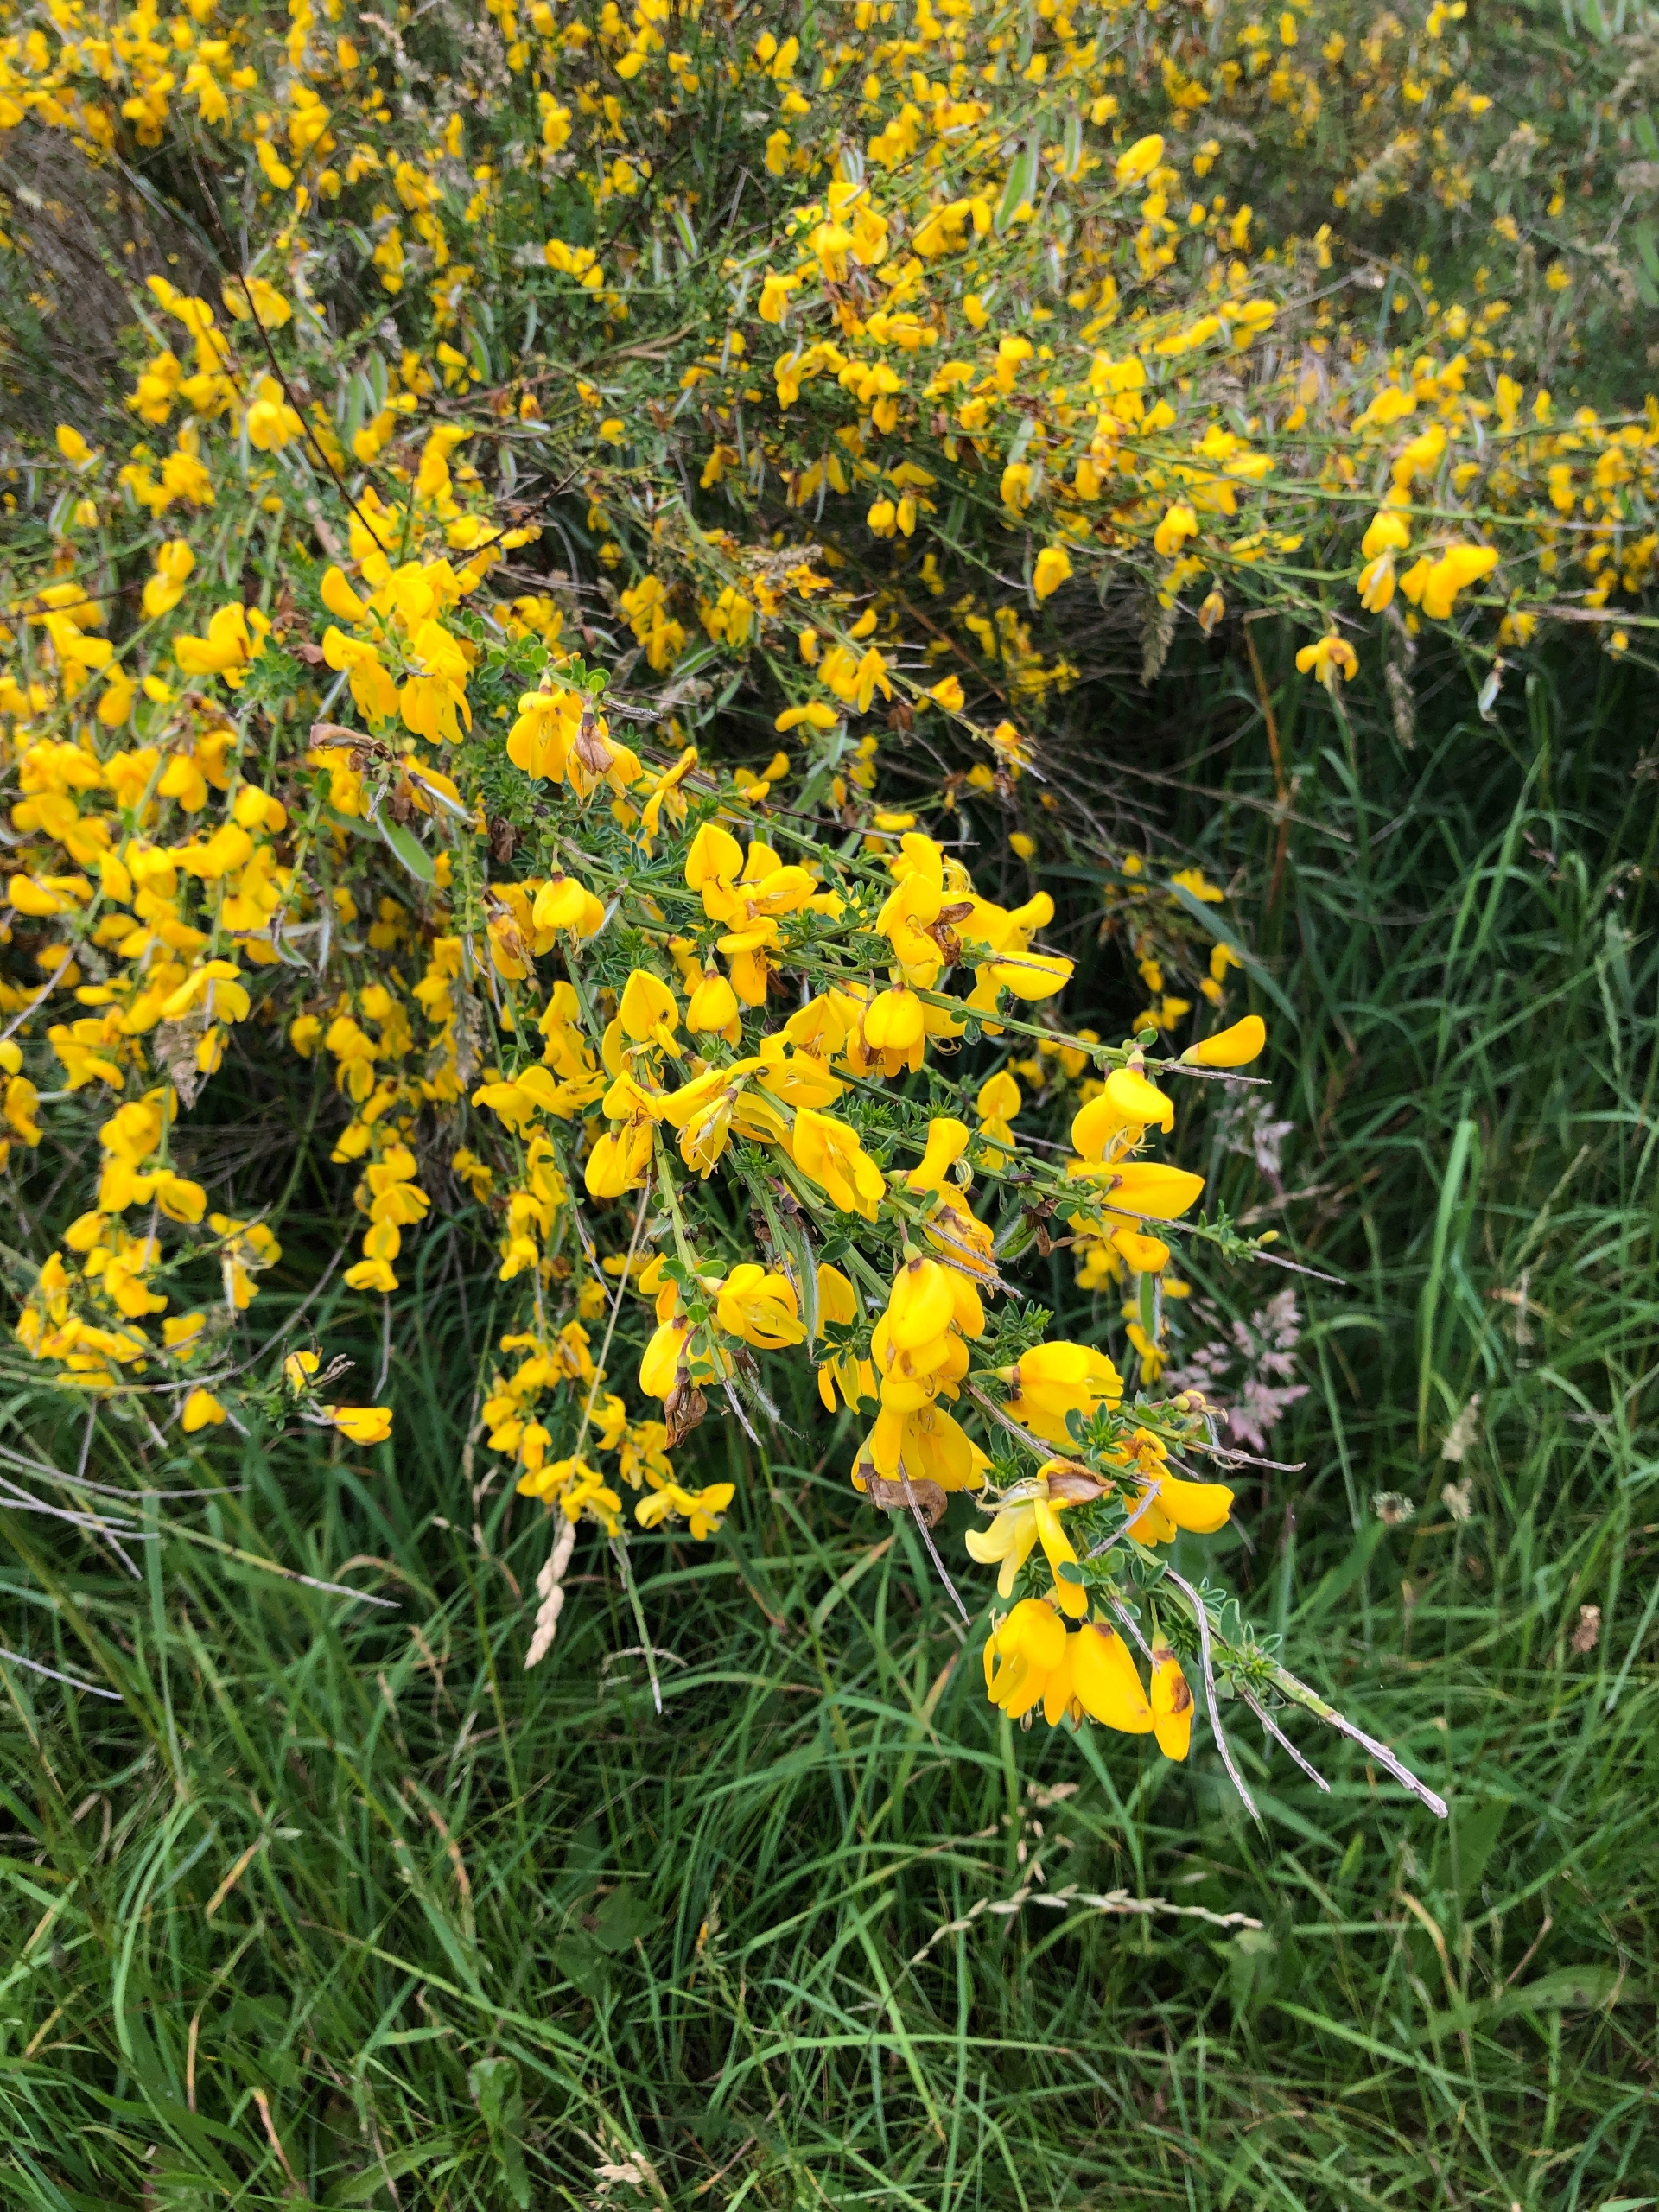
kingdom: Plantae
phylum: Tracheophyta
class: Magnoliopsida
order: Fabales
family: Fabaceae
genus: Cytisus
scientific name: Cytisus scoparius
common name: Almindelig gyvel
